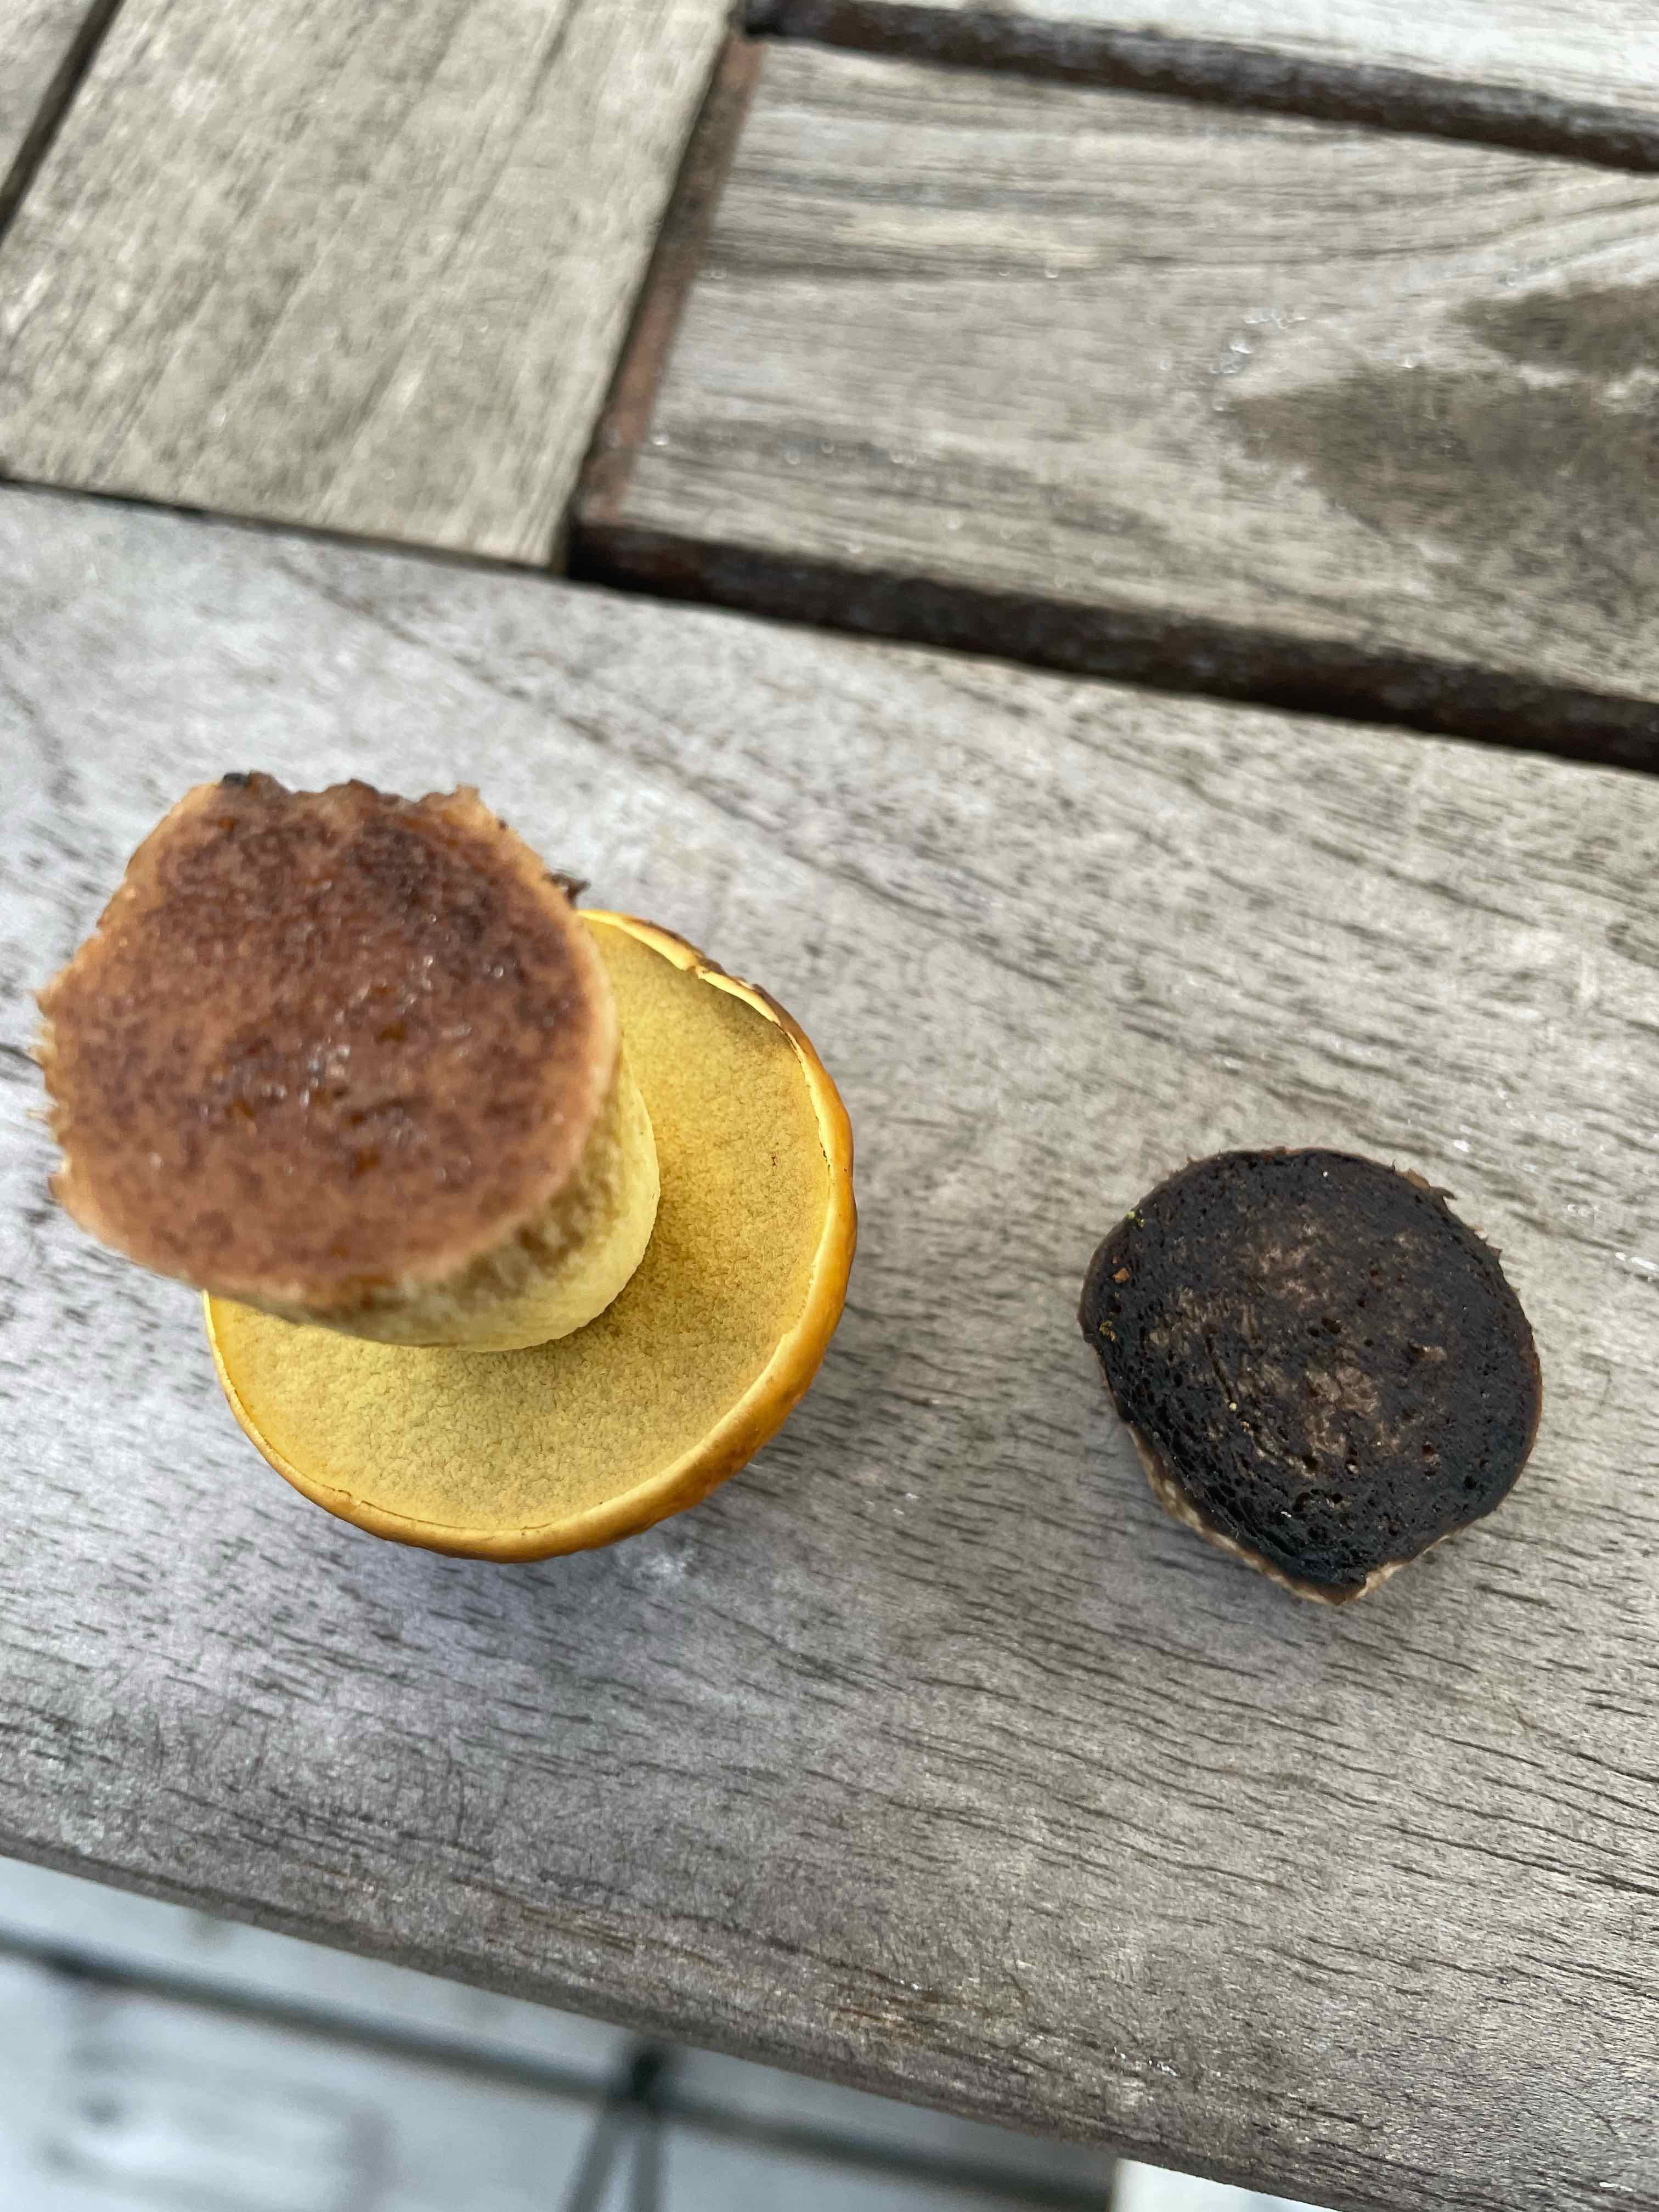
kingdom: Fungi
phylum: Basidiomycota
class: Agaricomycetes
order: Boletales
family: Boletaceae
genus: Leccinellum
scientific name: Leccinellum crocipodium
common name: gul skælrørhat
